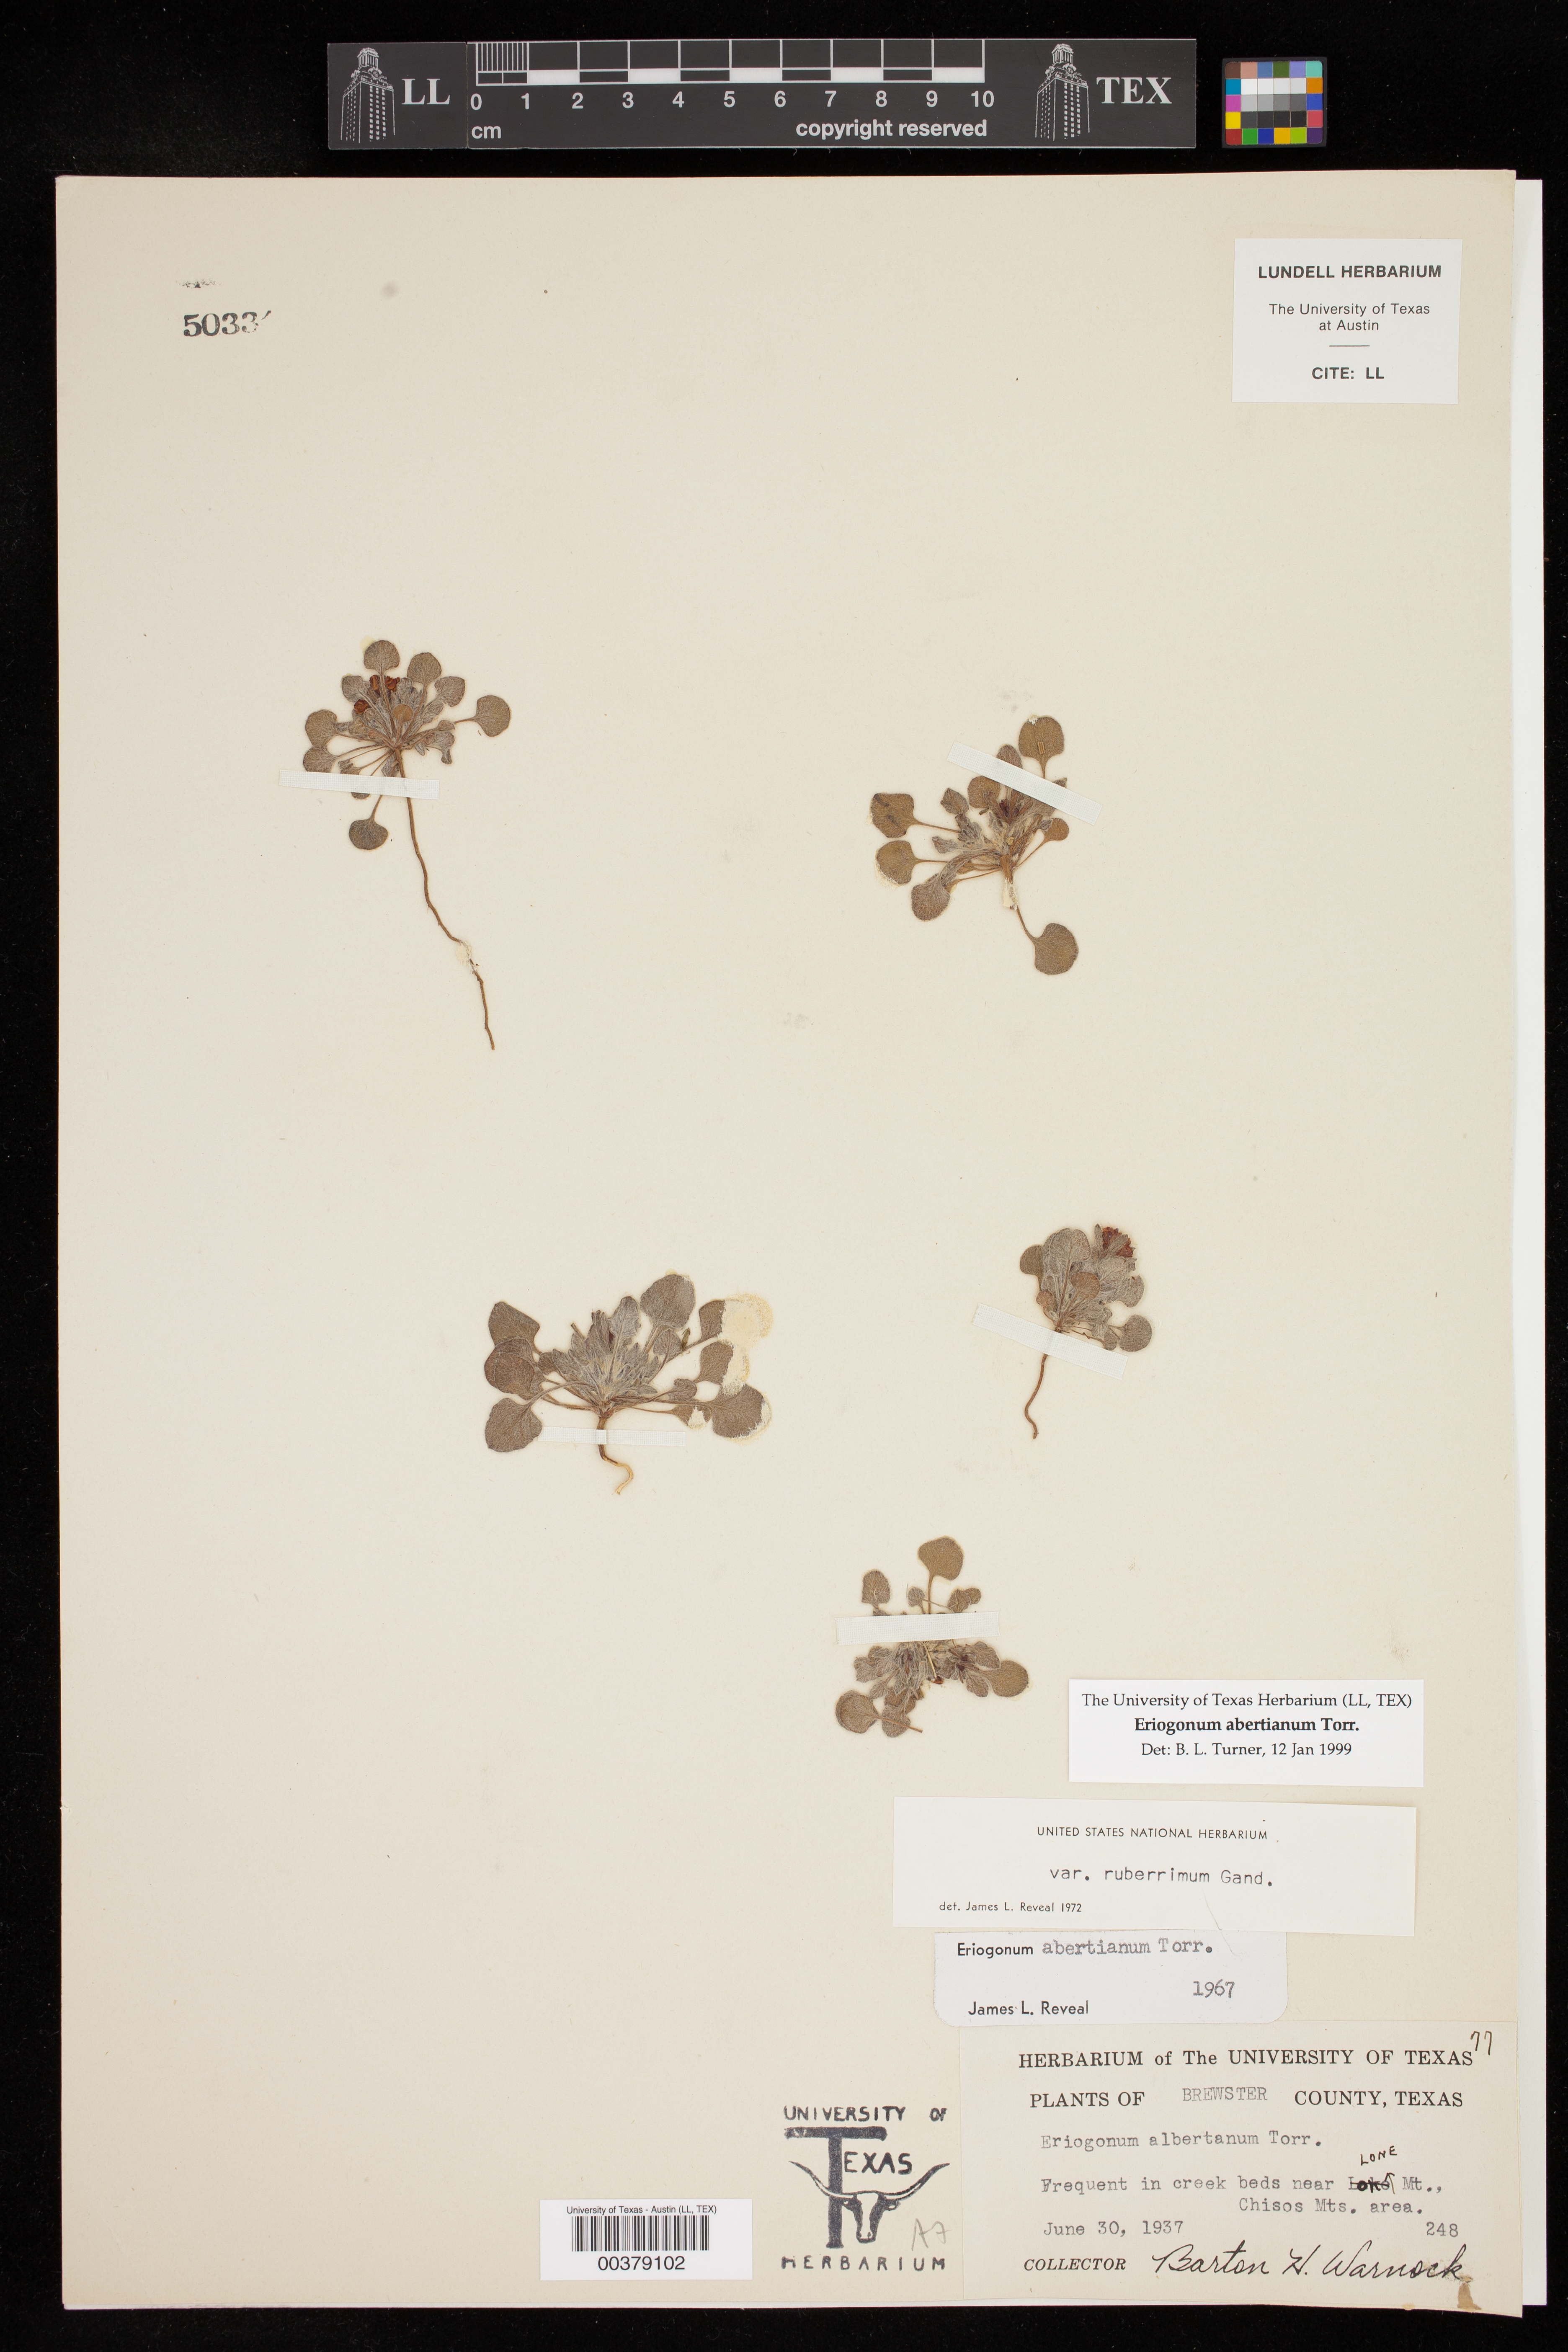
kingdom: Plantae
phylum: Tracheophyta
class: Magnoliopsida
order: Caryophyllales
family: Polygonaceae
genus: Eriogonum
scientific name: Eriogonum abertianum
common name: Abert's wild buckwheat
